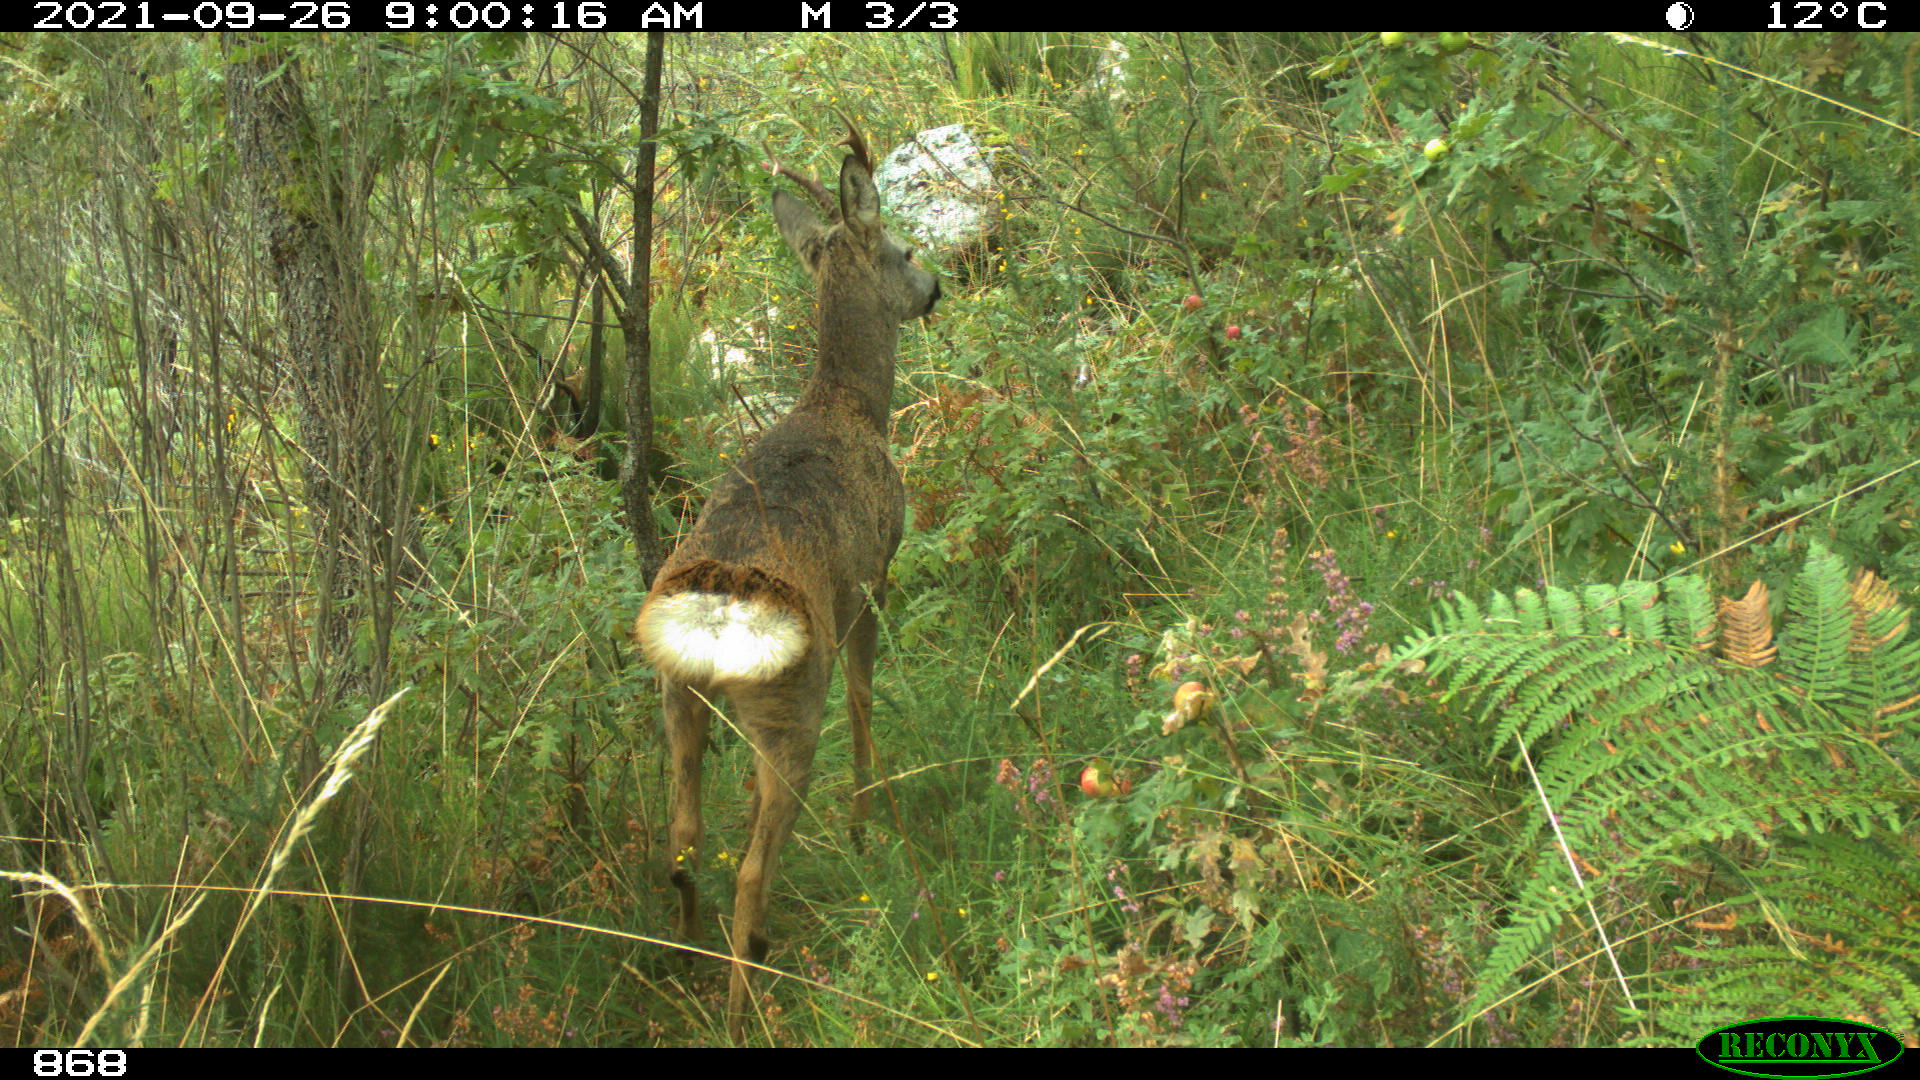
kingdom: Animalia
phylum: Chordata
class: Mammalia
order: Artiodactyla
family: Cervidae
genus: Capreolus
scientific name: Capreolus capreolus
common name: Western roe deer
